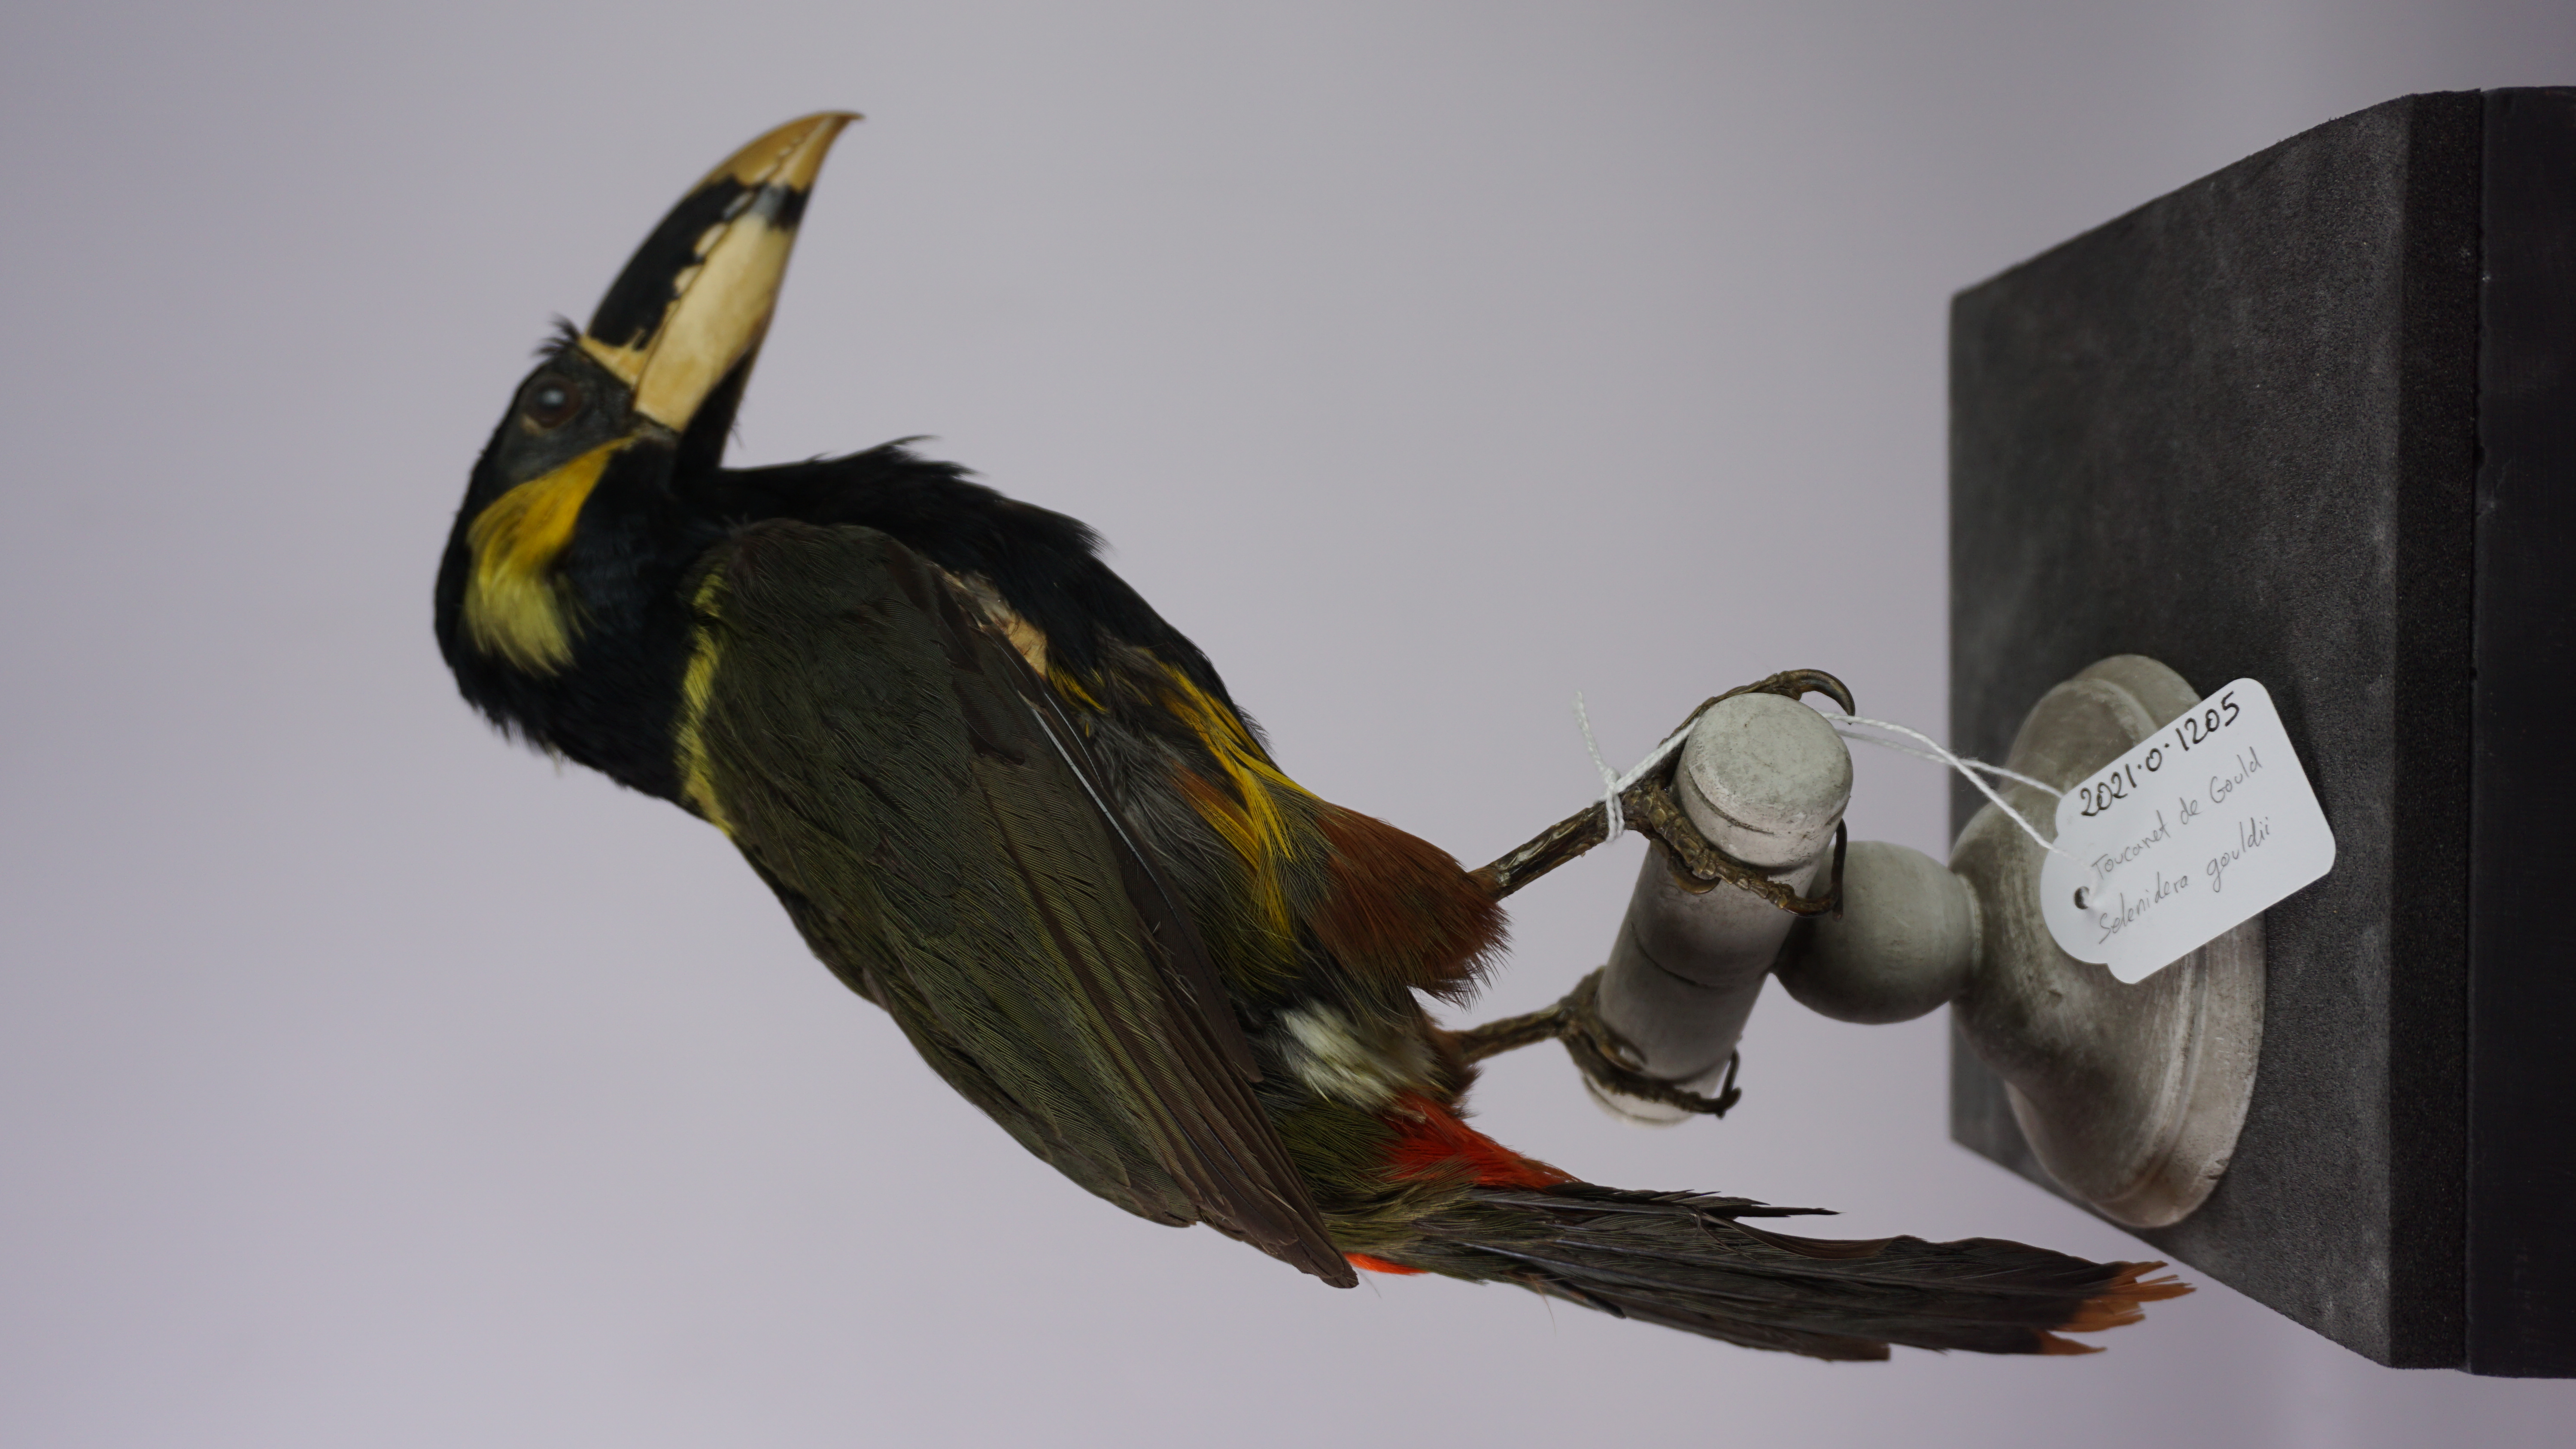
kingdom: Animalia
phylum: Chordata
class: Aves
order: Piciformes
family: Ramphastidae
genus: Selenidera
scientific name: Selenidera gouldii
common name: Gould's toucanet
